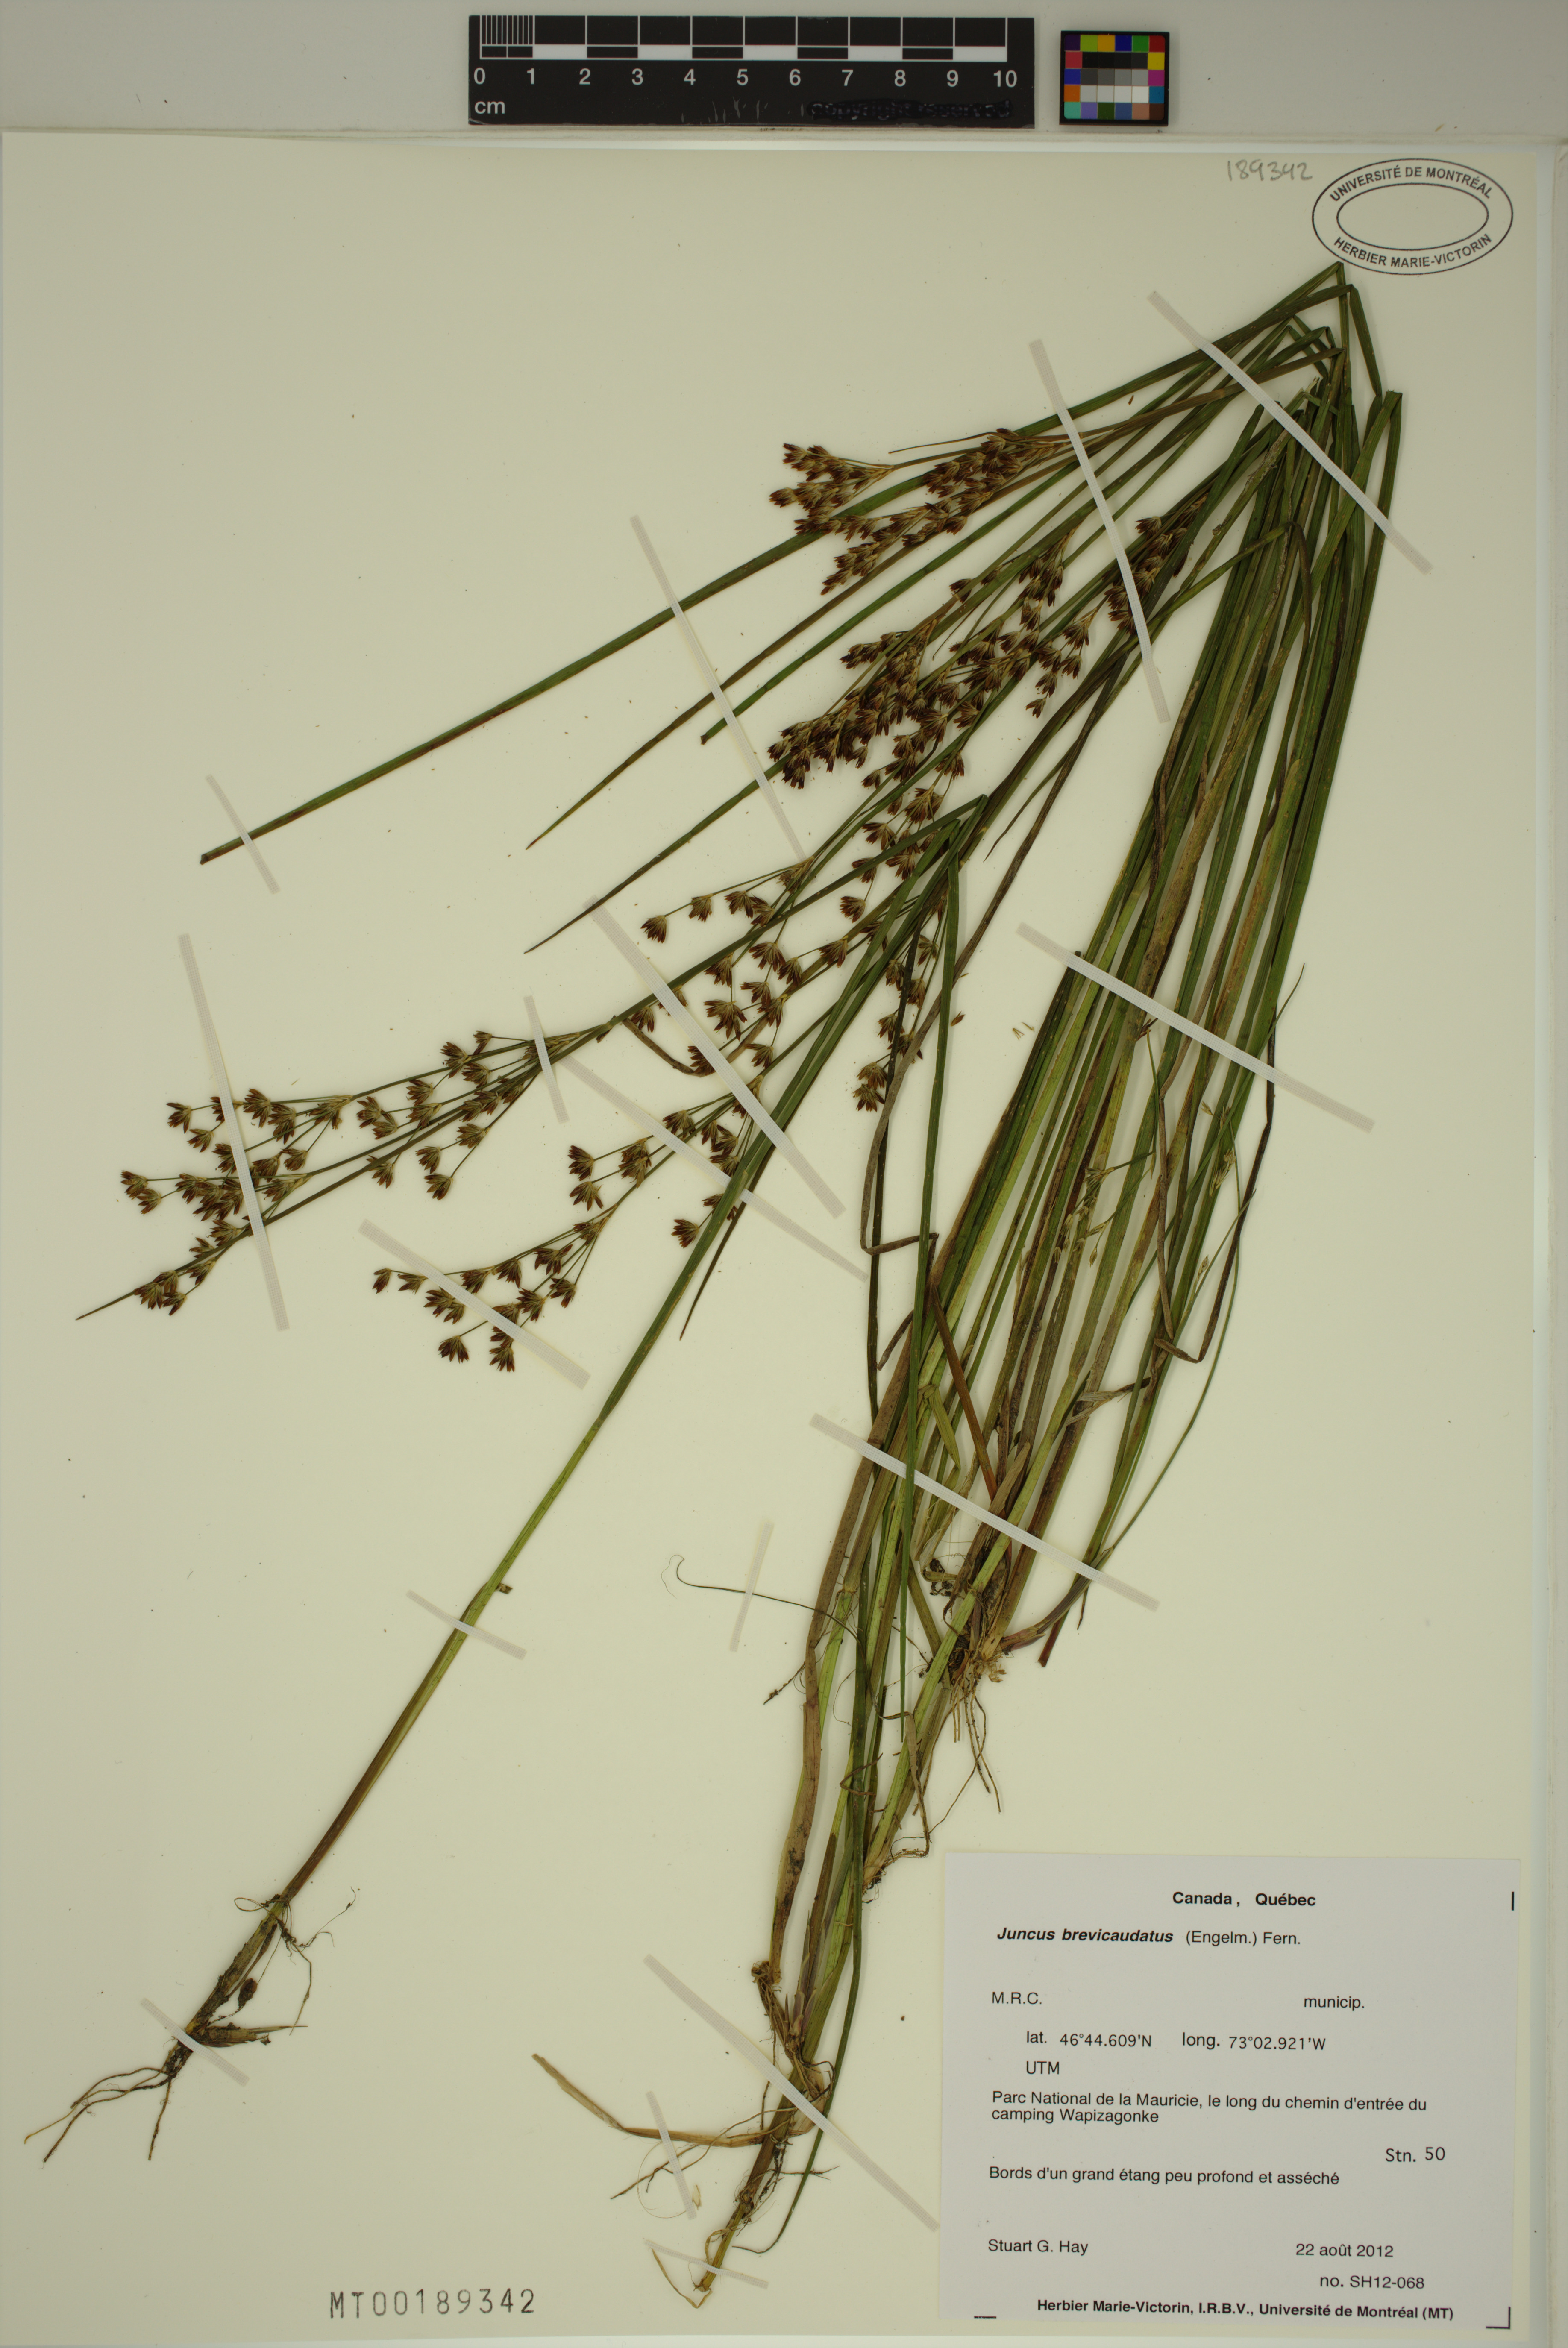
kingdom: Plantae
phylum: Tracheophyta
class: Liliopsida
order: Poales
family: Juncaceae
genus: Juncus
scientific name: Juncus brevicaudatus
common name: Narrow-panicle rush
